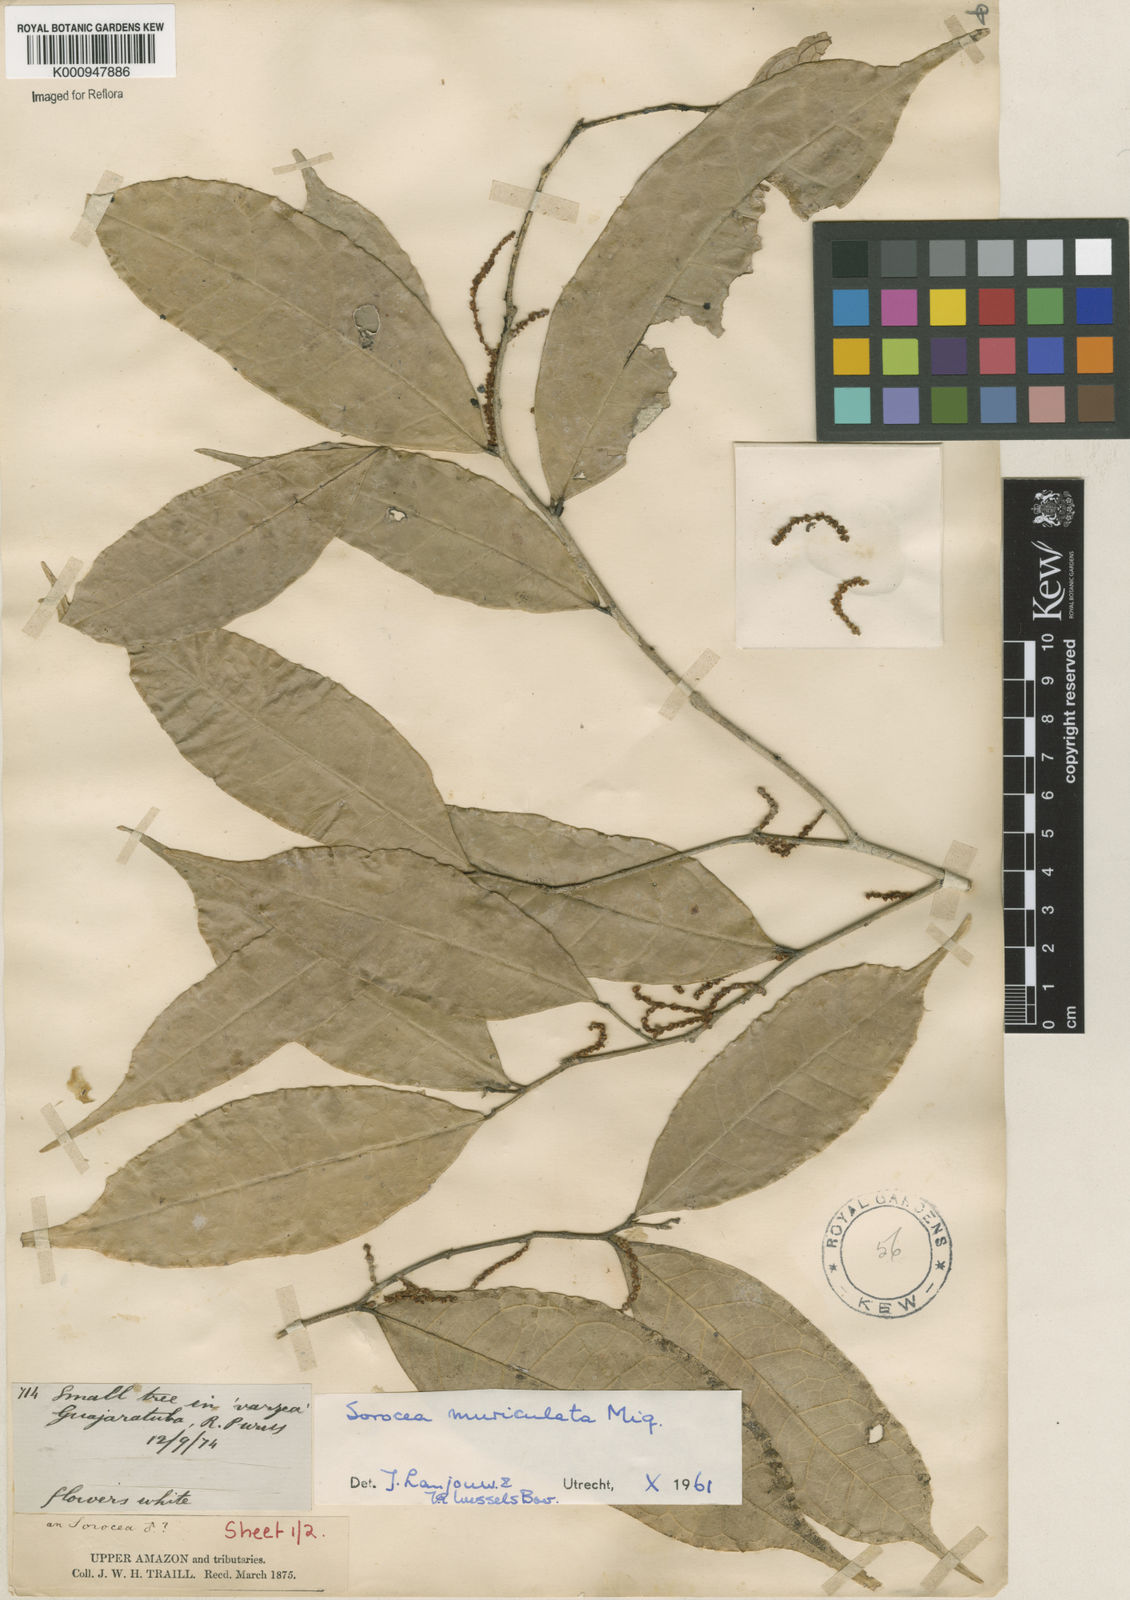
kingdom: Plantae
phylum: Tracheophyta
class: Magnoliopsida
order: Rosales
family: Moraceae
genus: Sorocea
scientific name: Sorocea muriculata
